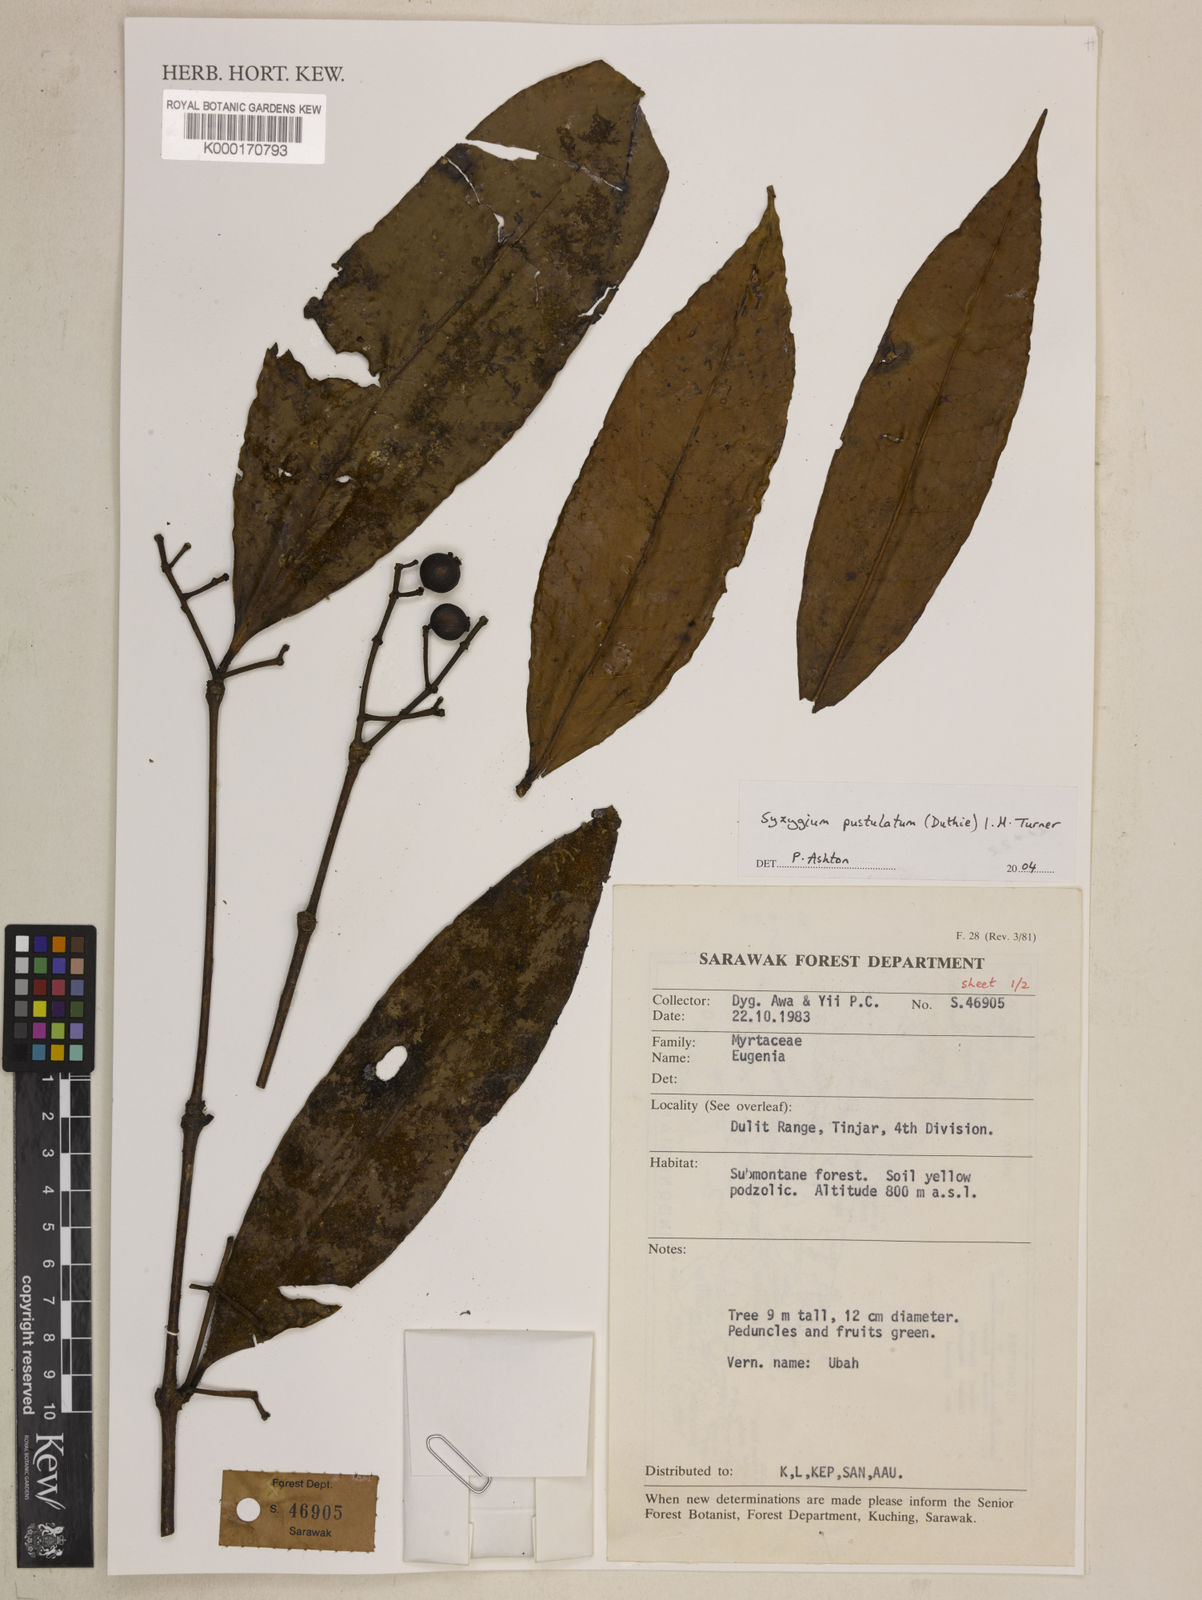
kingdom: Plantae
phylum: Tracheophyta
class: Magnoliopsida
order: Myrtales
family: Myrtaceae
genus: Syzygium
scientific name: Syzygium
